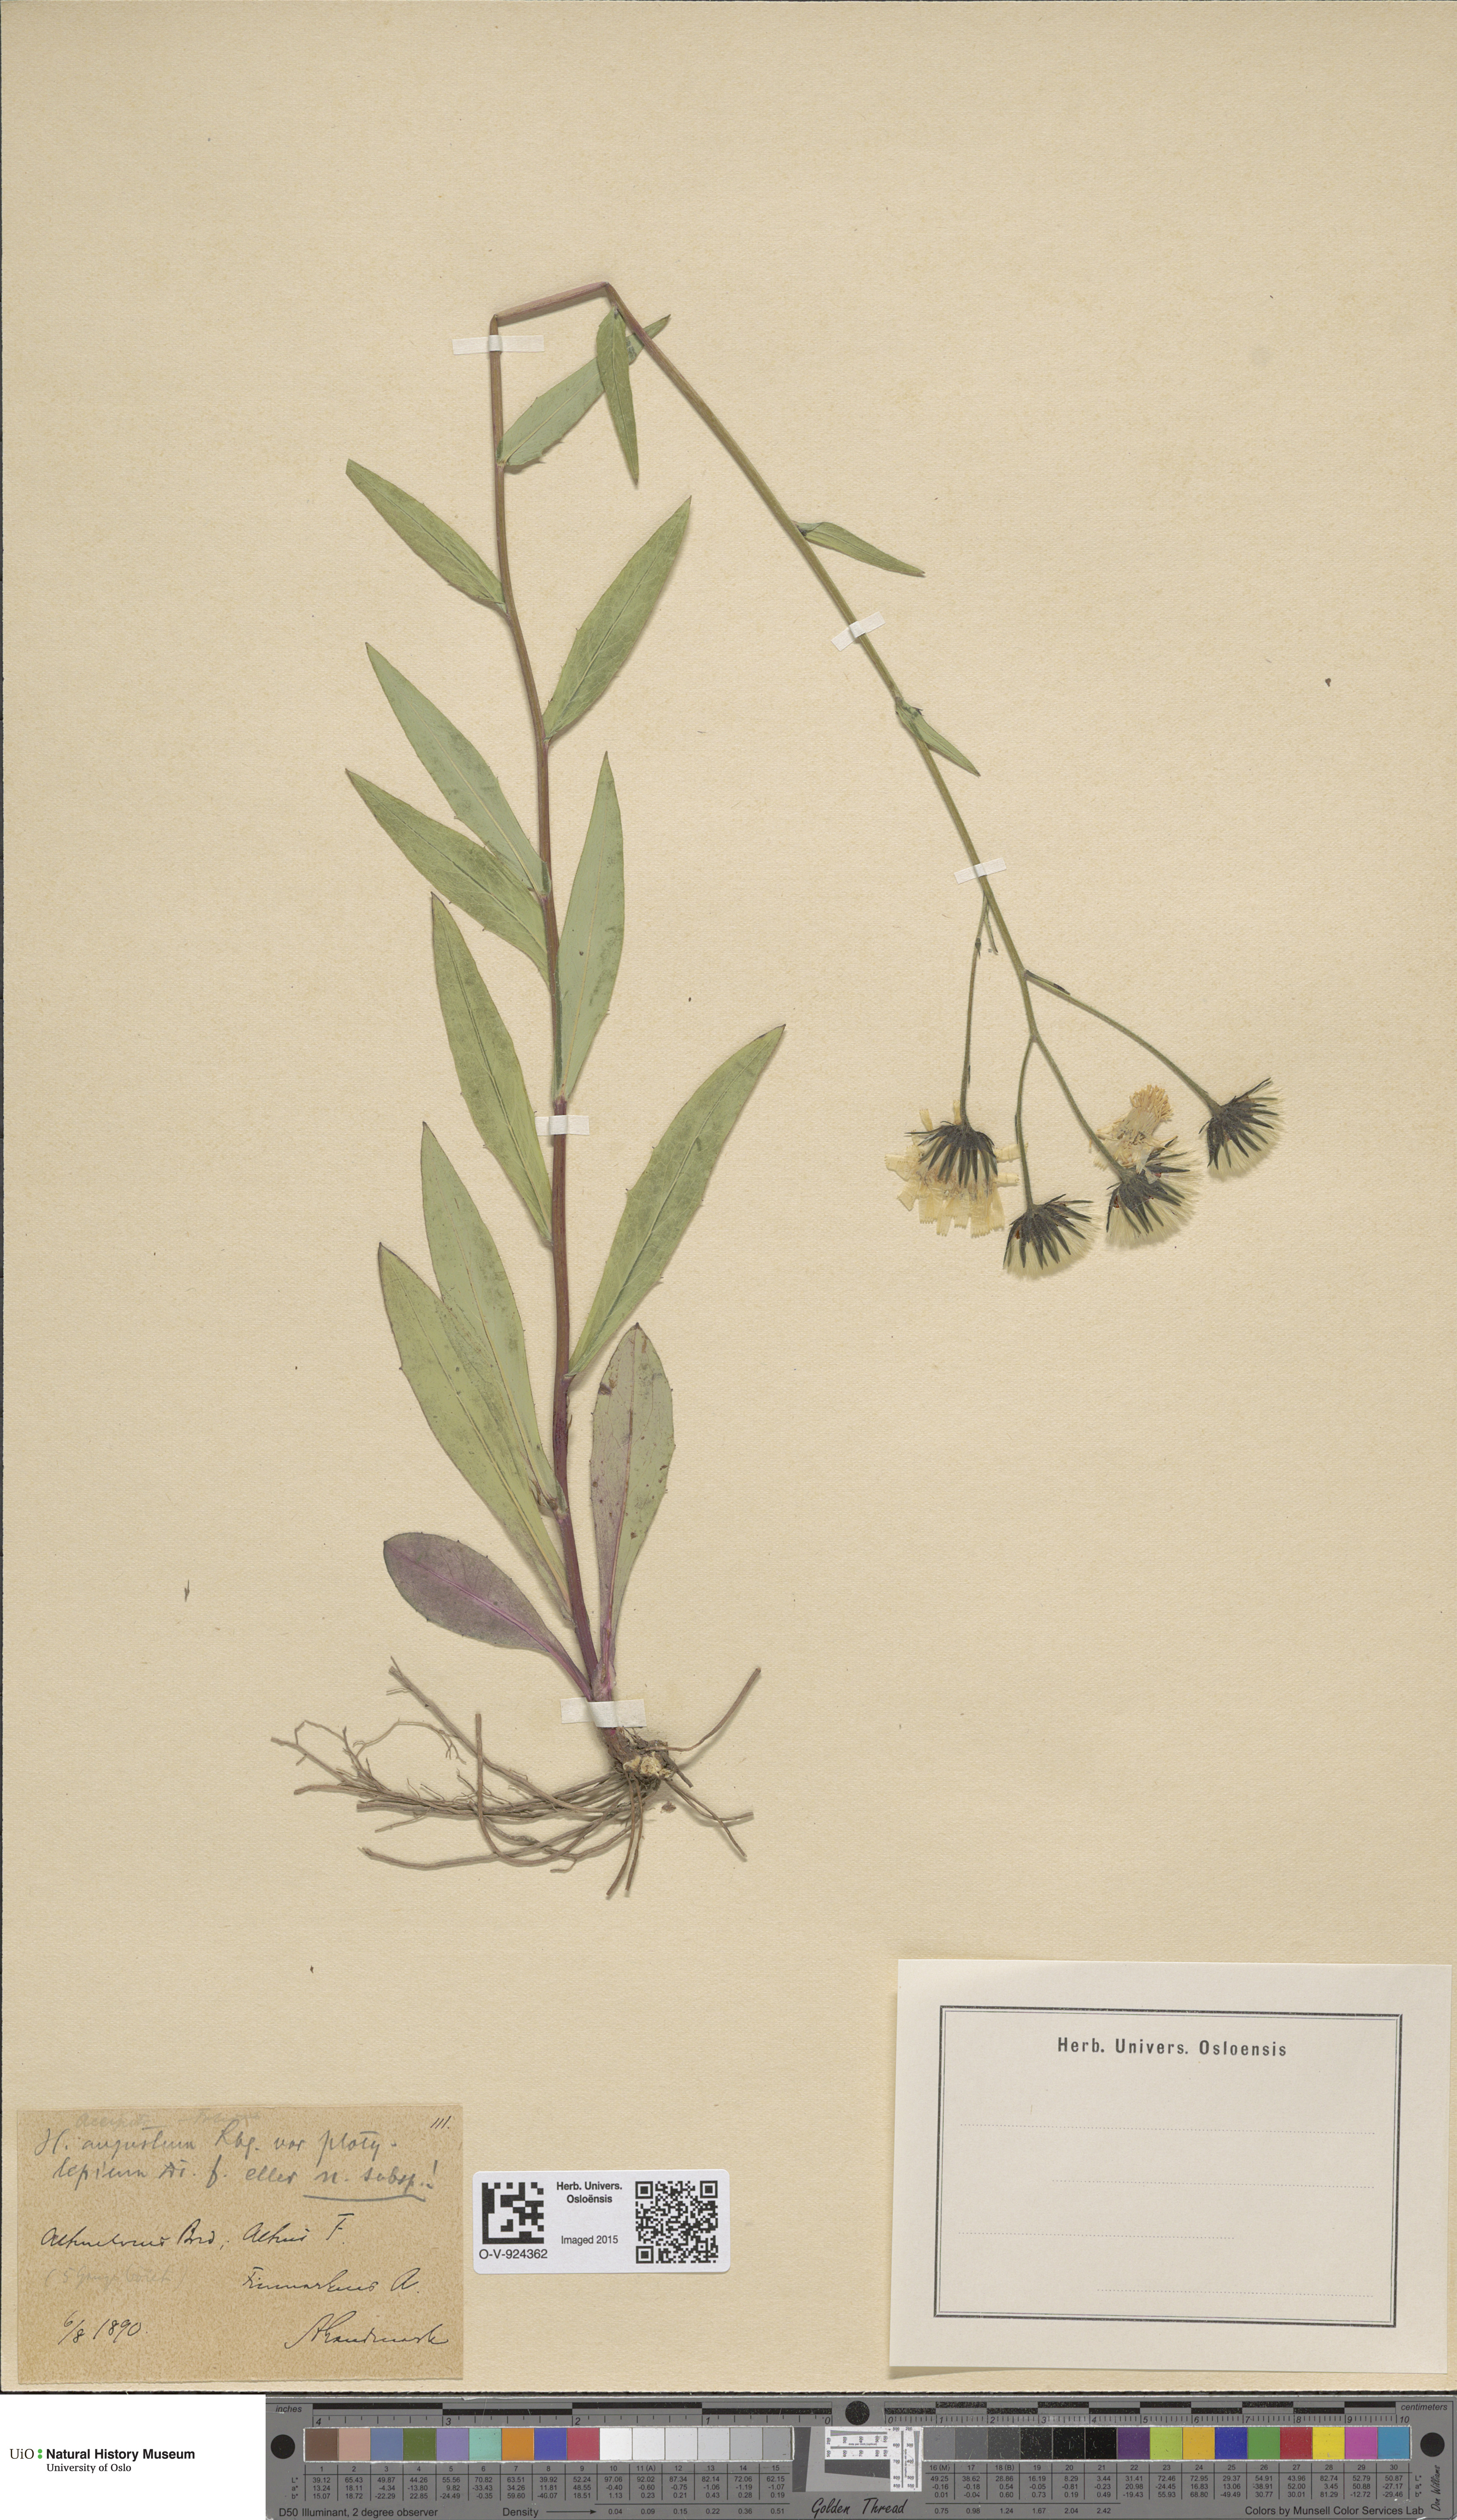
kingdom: Plantae
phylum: Tracheophyta
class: Magnoliopsida
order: Asterales
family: Asteraceae
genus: Hieracium
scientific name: Hieracium angustum
